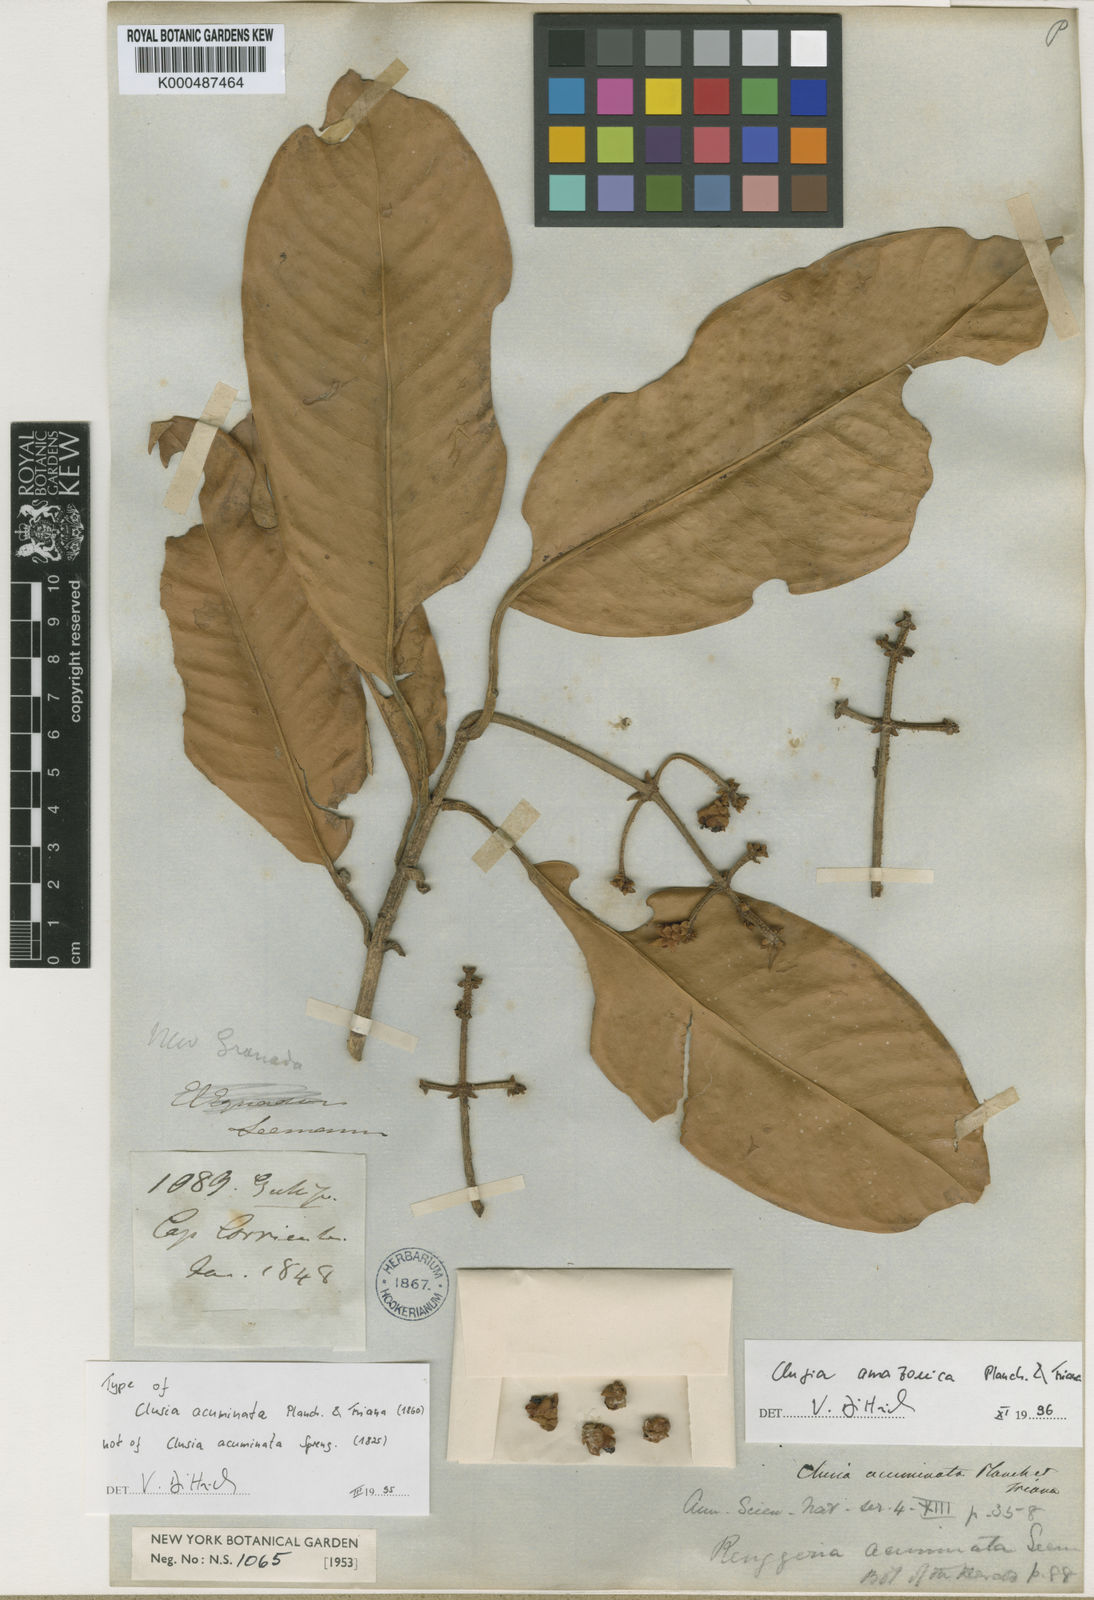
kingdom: Plantae
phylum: Tracheophyta
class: Magnoliopsida
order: Malpighiales
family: Clusiaceae
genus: Clusia
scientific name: Clusia amazonica
